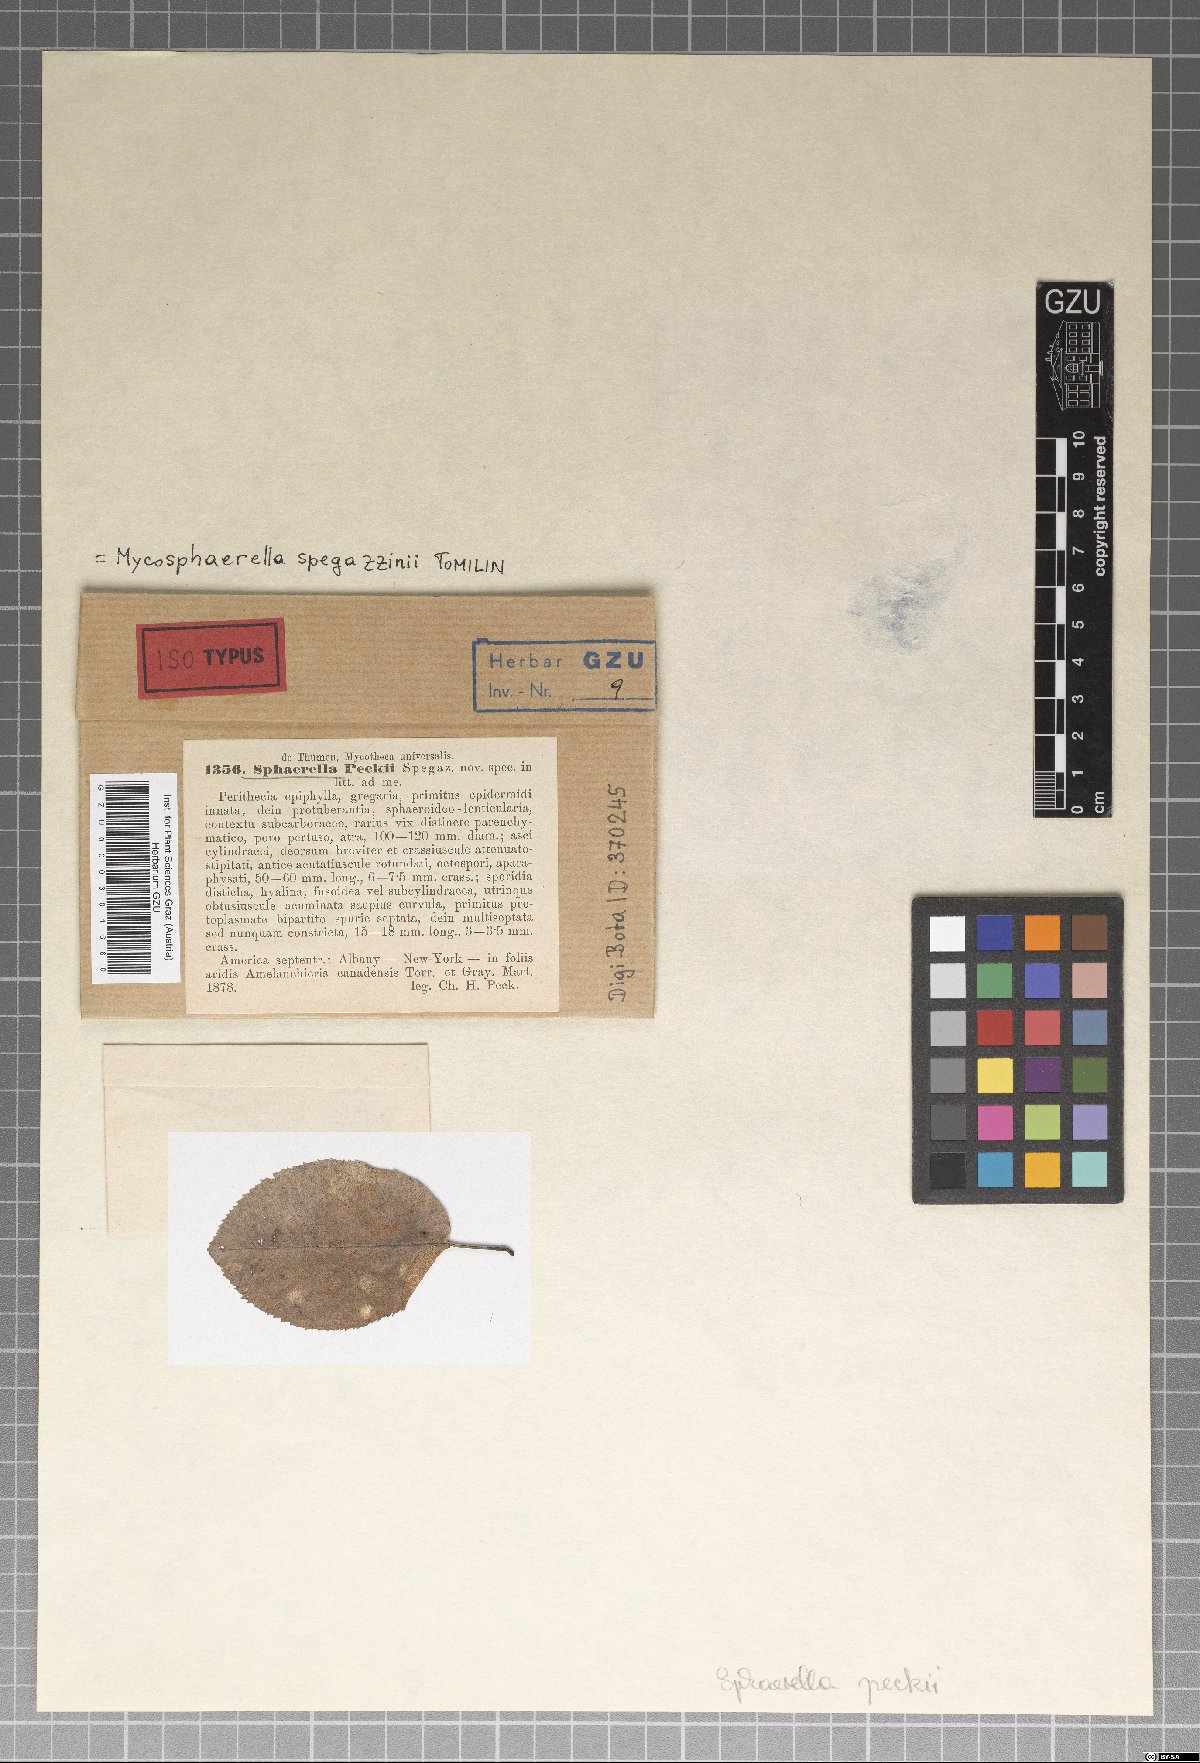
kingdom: Fungi
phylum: Ascomycota
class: Dothideomycetes
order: Mycosphaerellales
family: Mycosphaerellaceae
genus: Mycosphaerella
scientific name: Mycosphaerella spegazzinii
